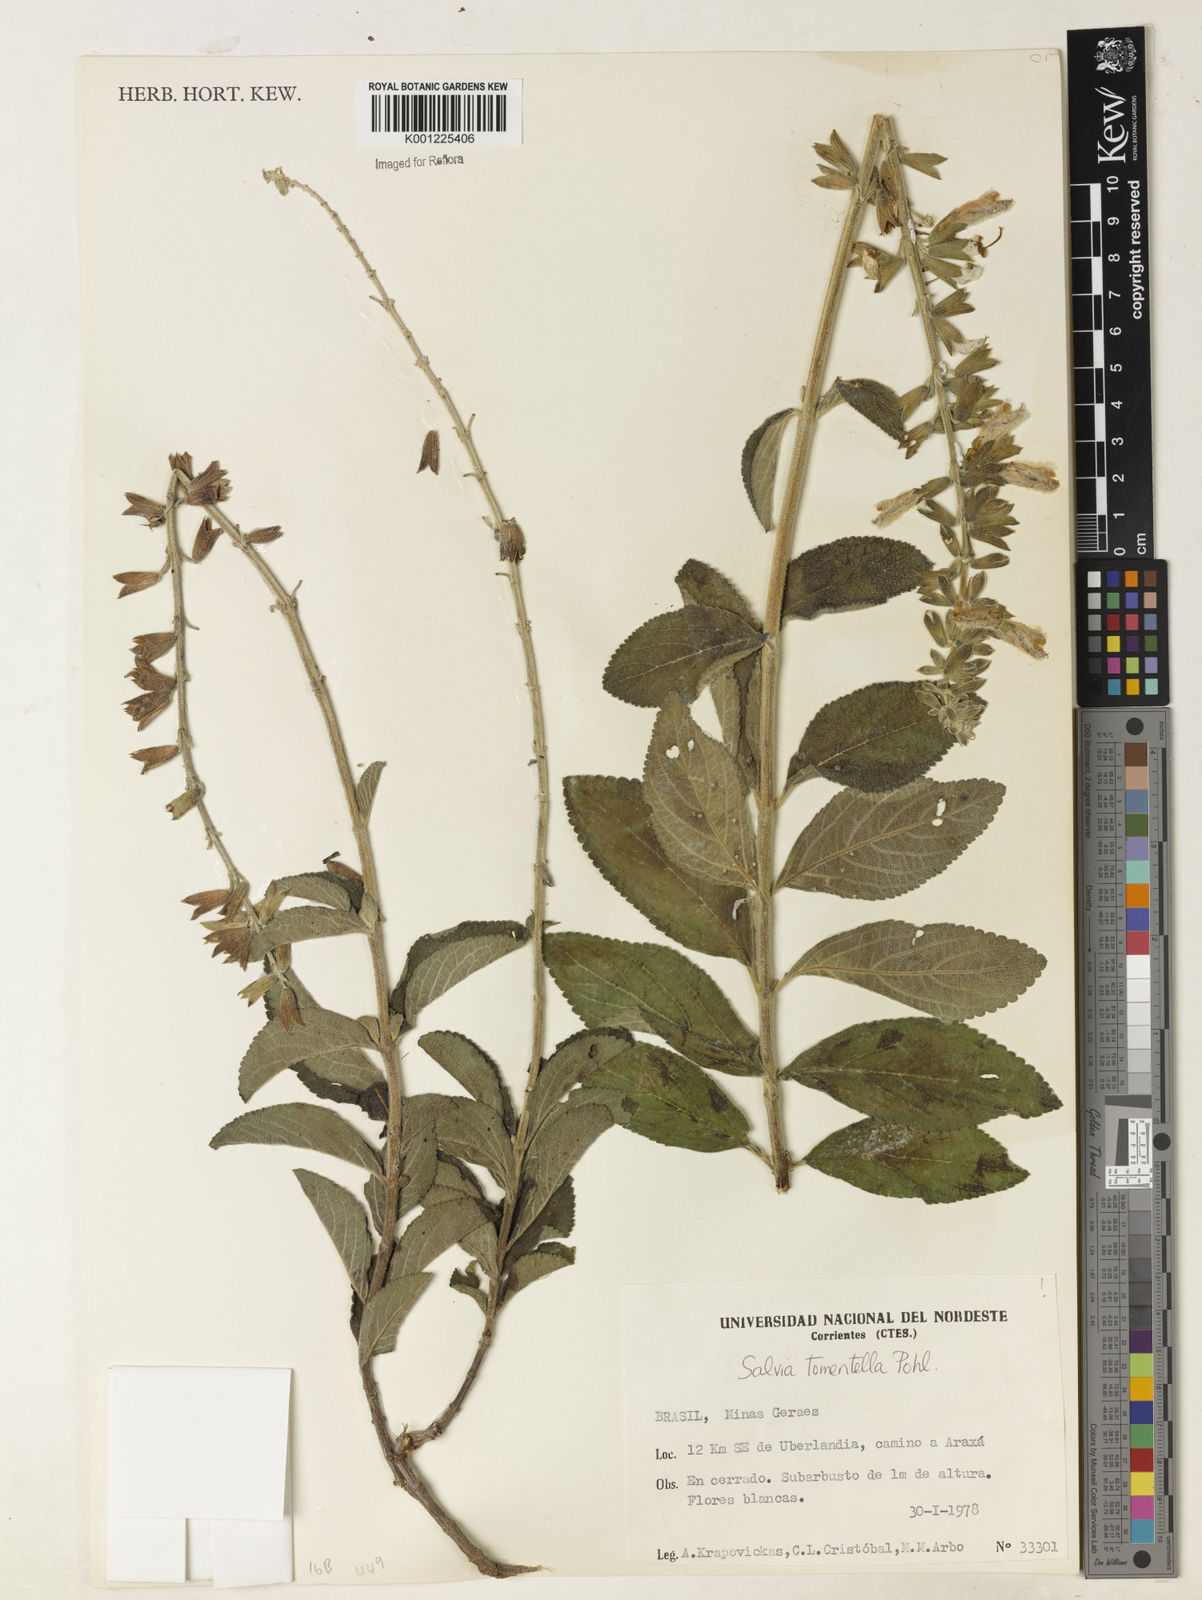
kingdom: Plantae
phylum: Tracheophyta
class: Magnoliopsida
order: Lamiales
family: Lamiaceae
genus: Salvia
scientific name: Salvia tomentella
